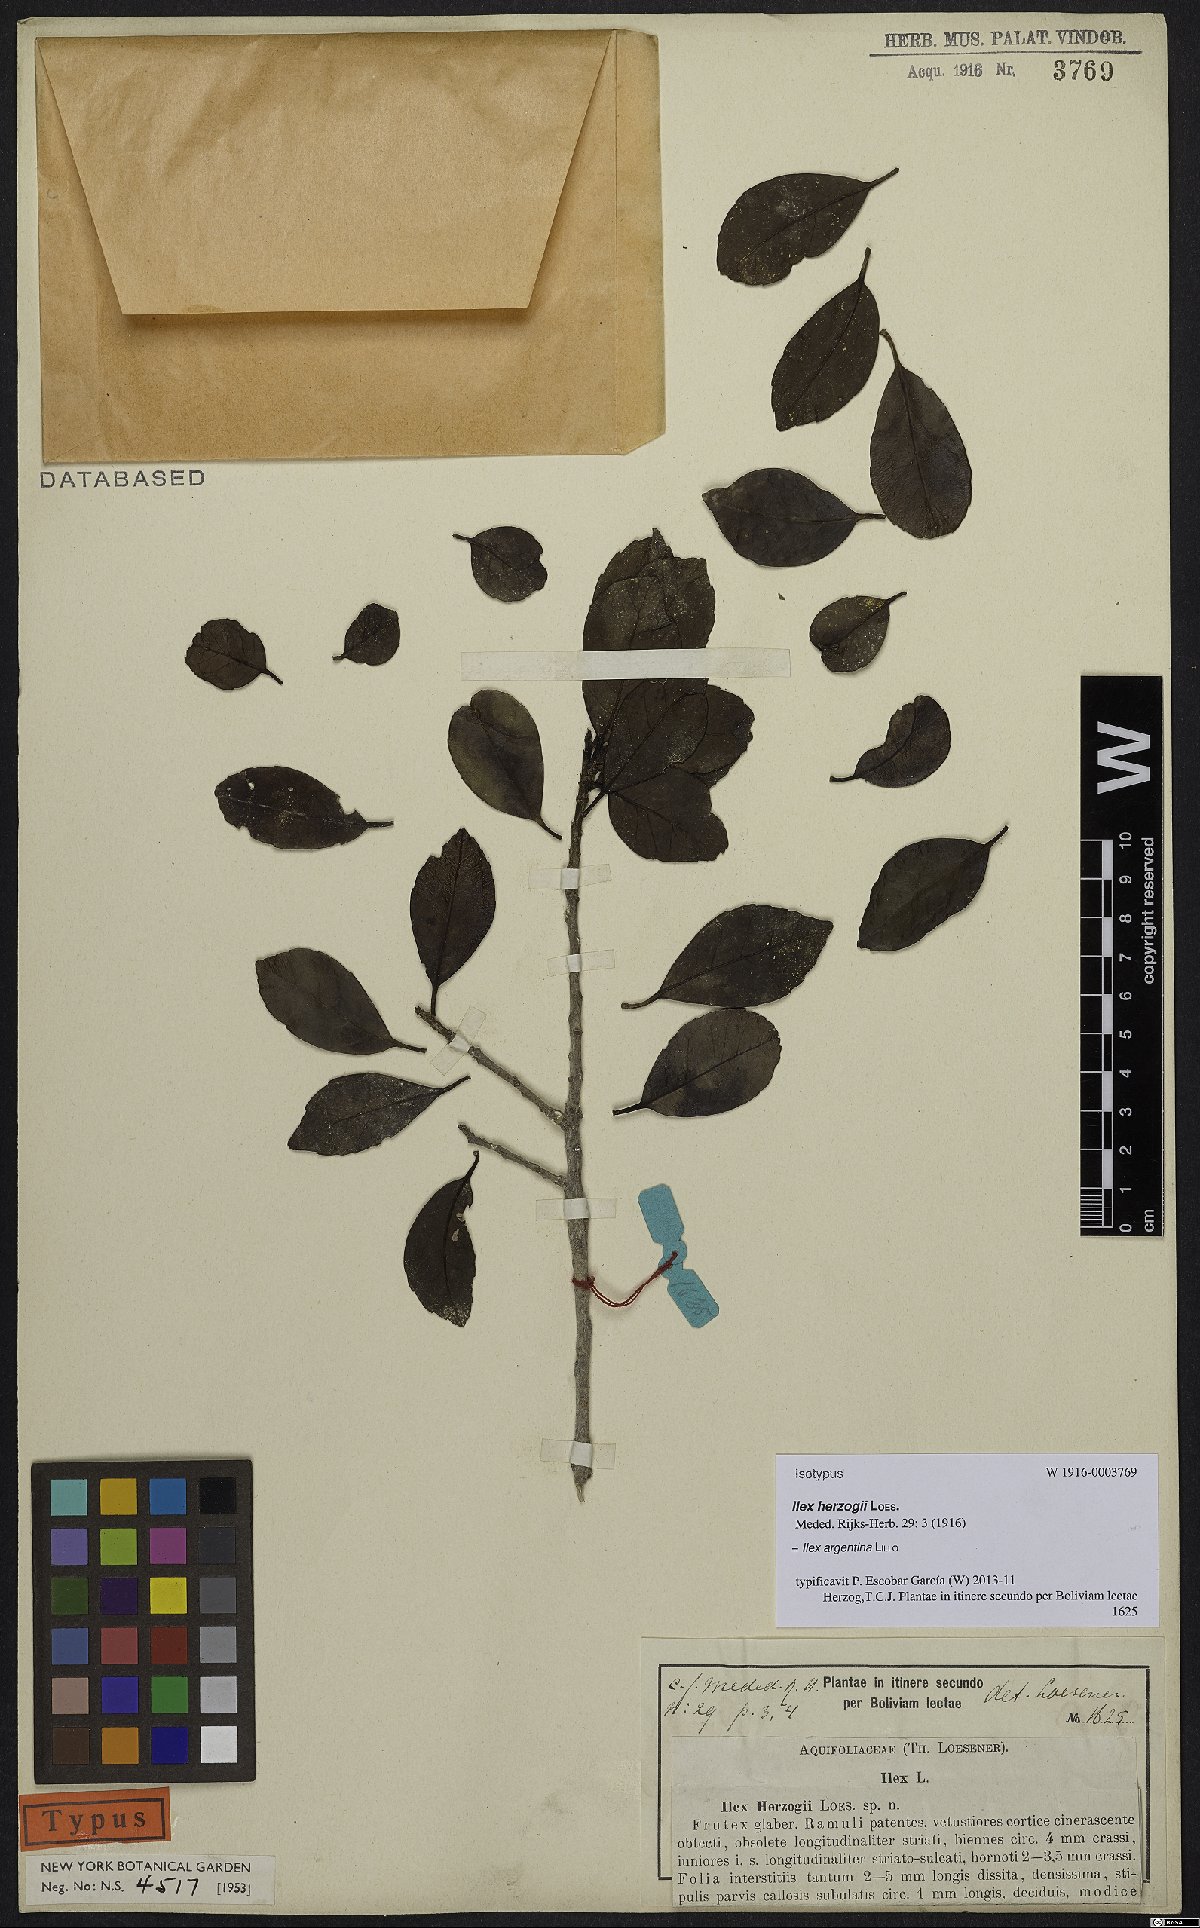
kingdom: Plantae
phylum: Tracheophyta
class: Magnoliopsida
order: Aquifoliales
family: Aquifoliaceae
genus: Ilex
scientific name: Ilex argentina
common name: Argentina holly
